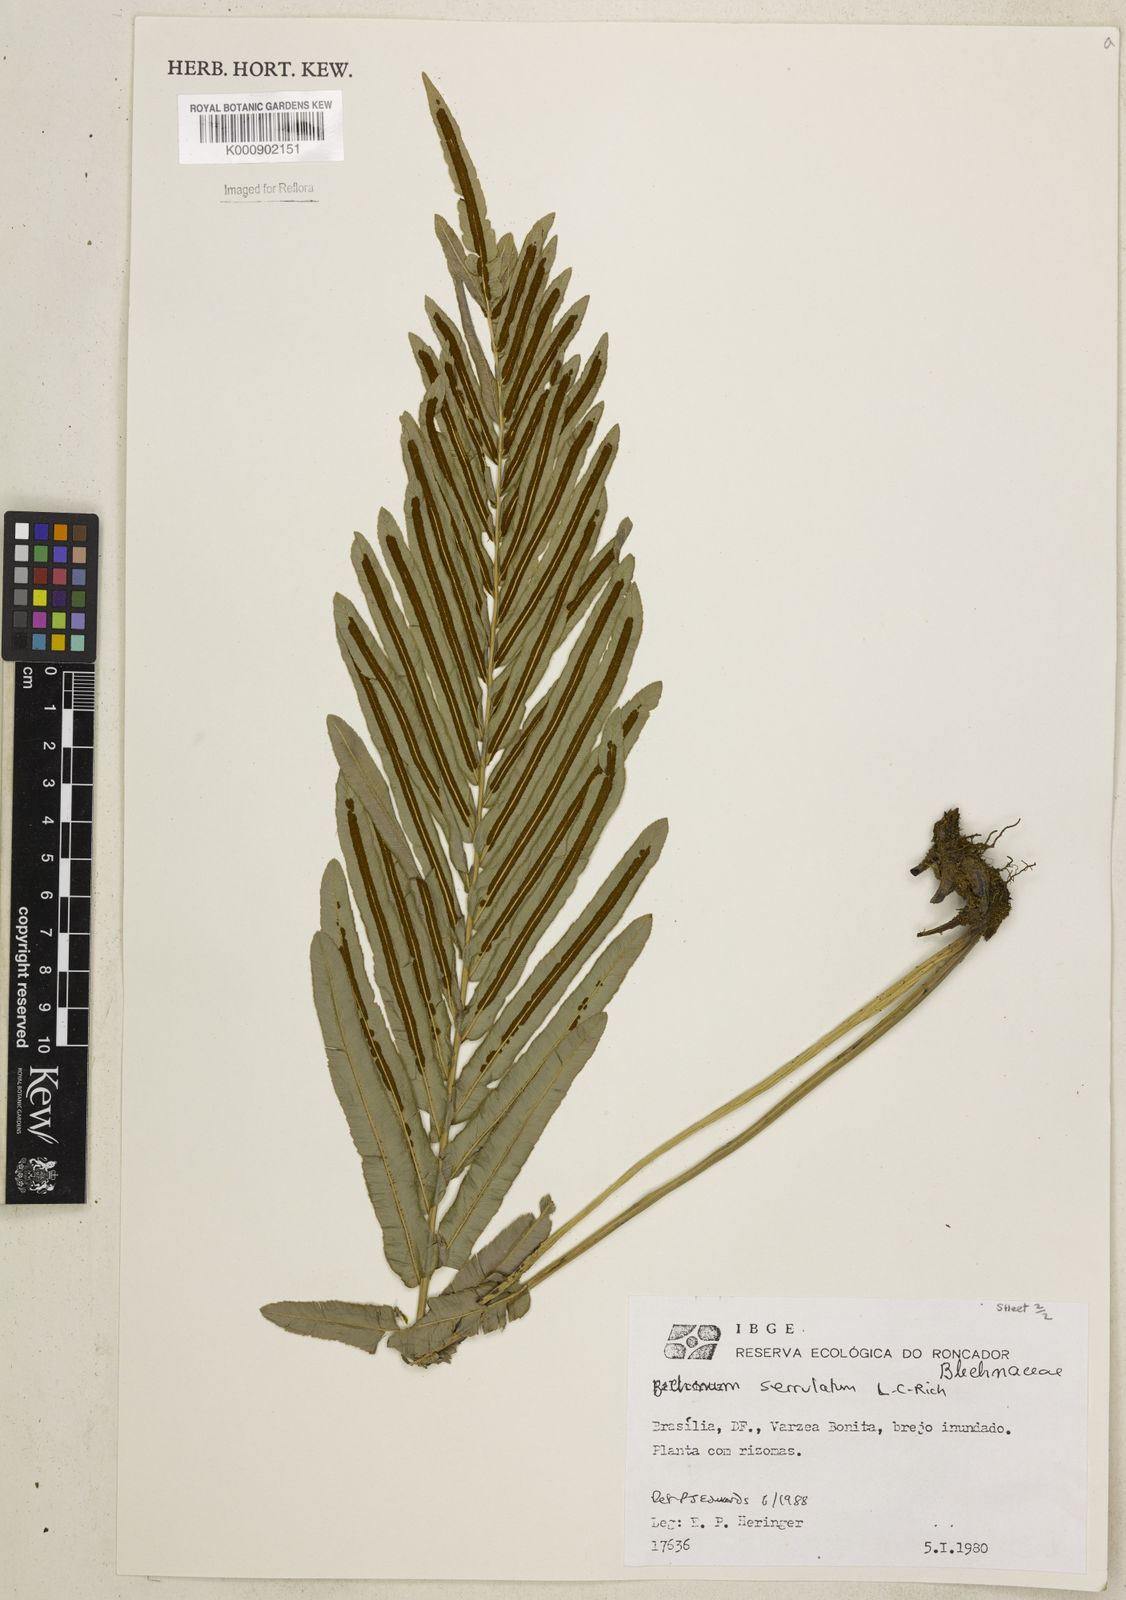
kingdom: Plantae
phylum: Tracheophyta
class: Polypodiopsida
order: Polypodiales
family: Blechnaceae
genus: Telmatoblechnum
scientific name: Telmatoblechnum serrulatum
